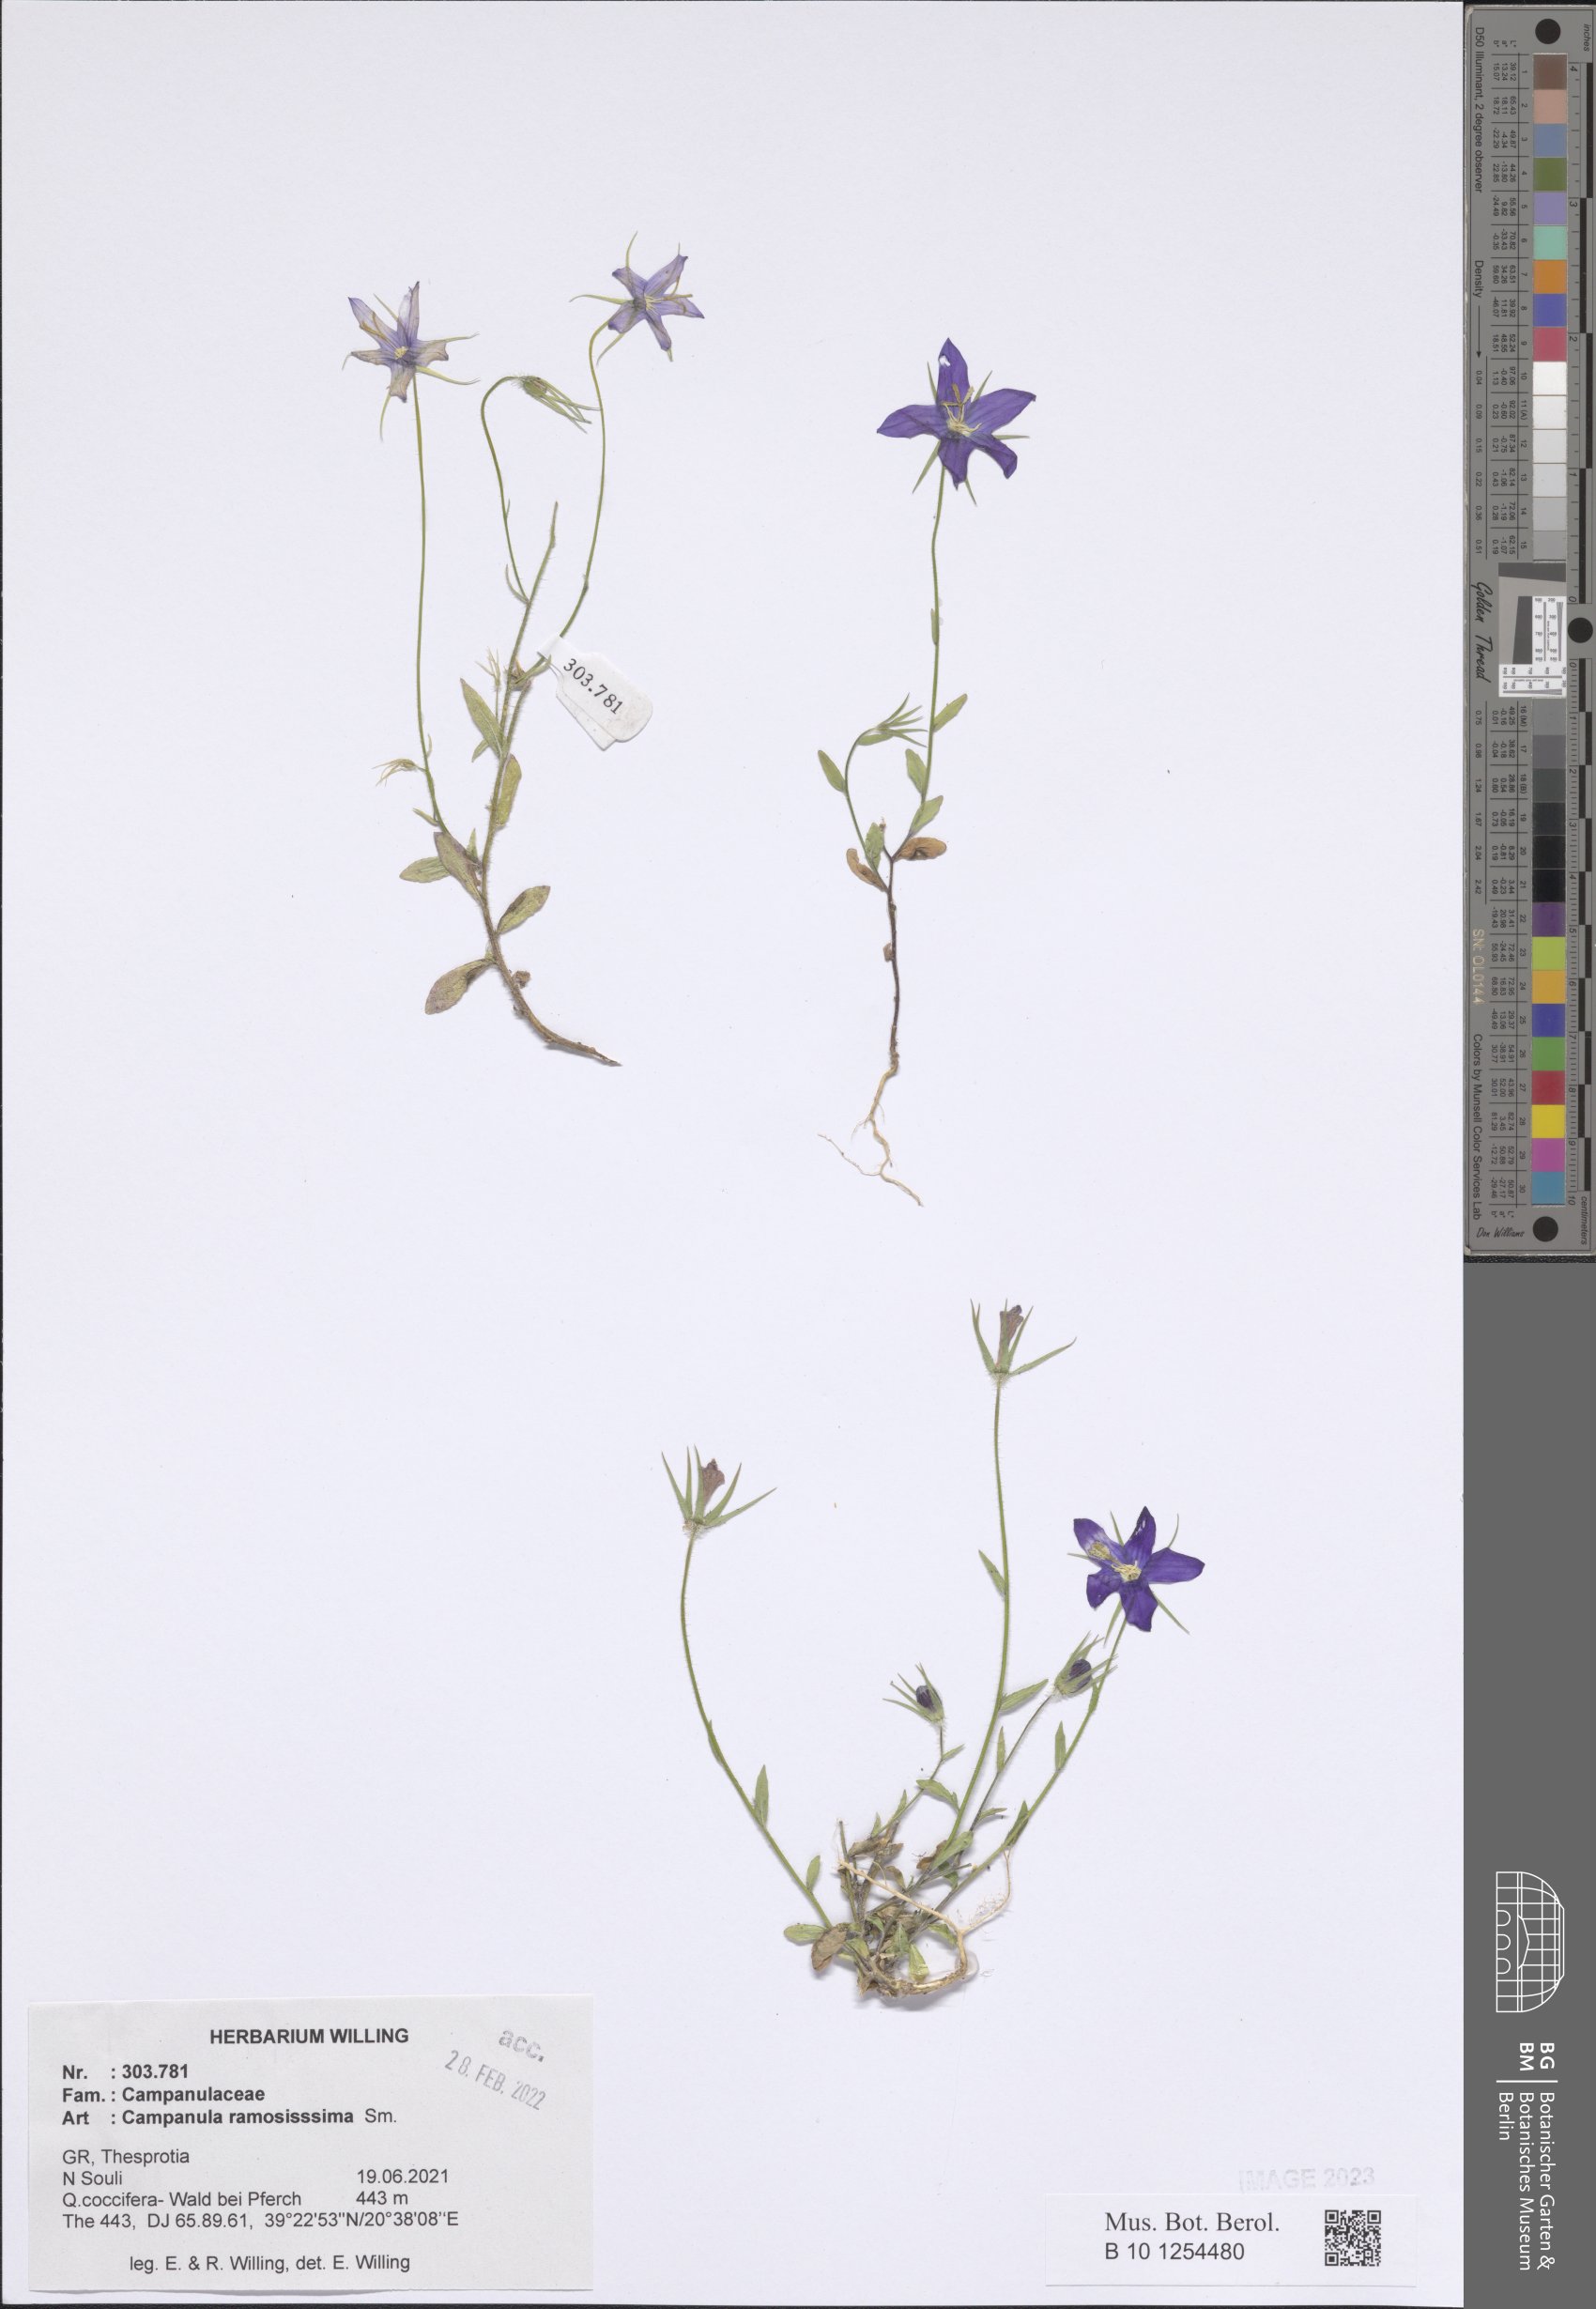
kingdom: Plantae
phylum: Tracheophyta
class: Magnoliopsida
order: Asterales
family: Campanulaceae
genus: Campanula
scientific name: Campanula ramosissima
